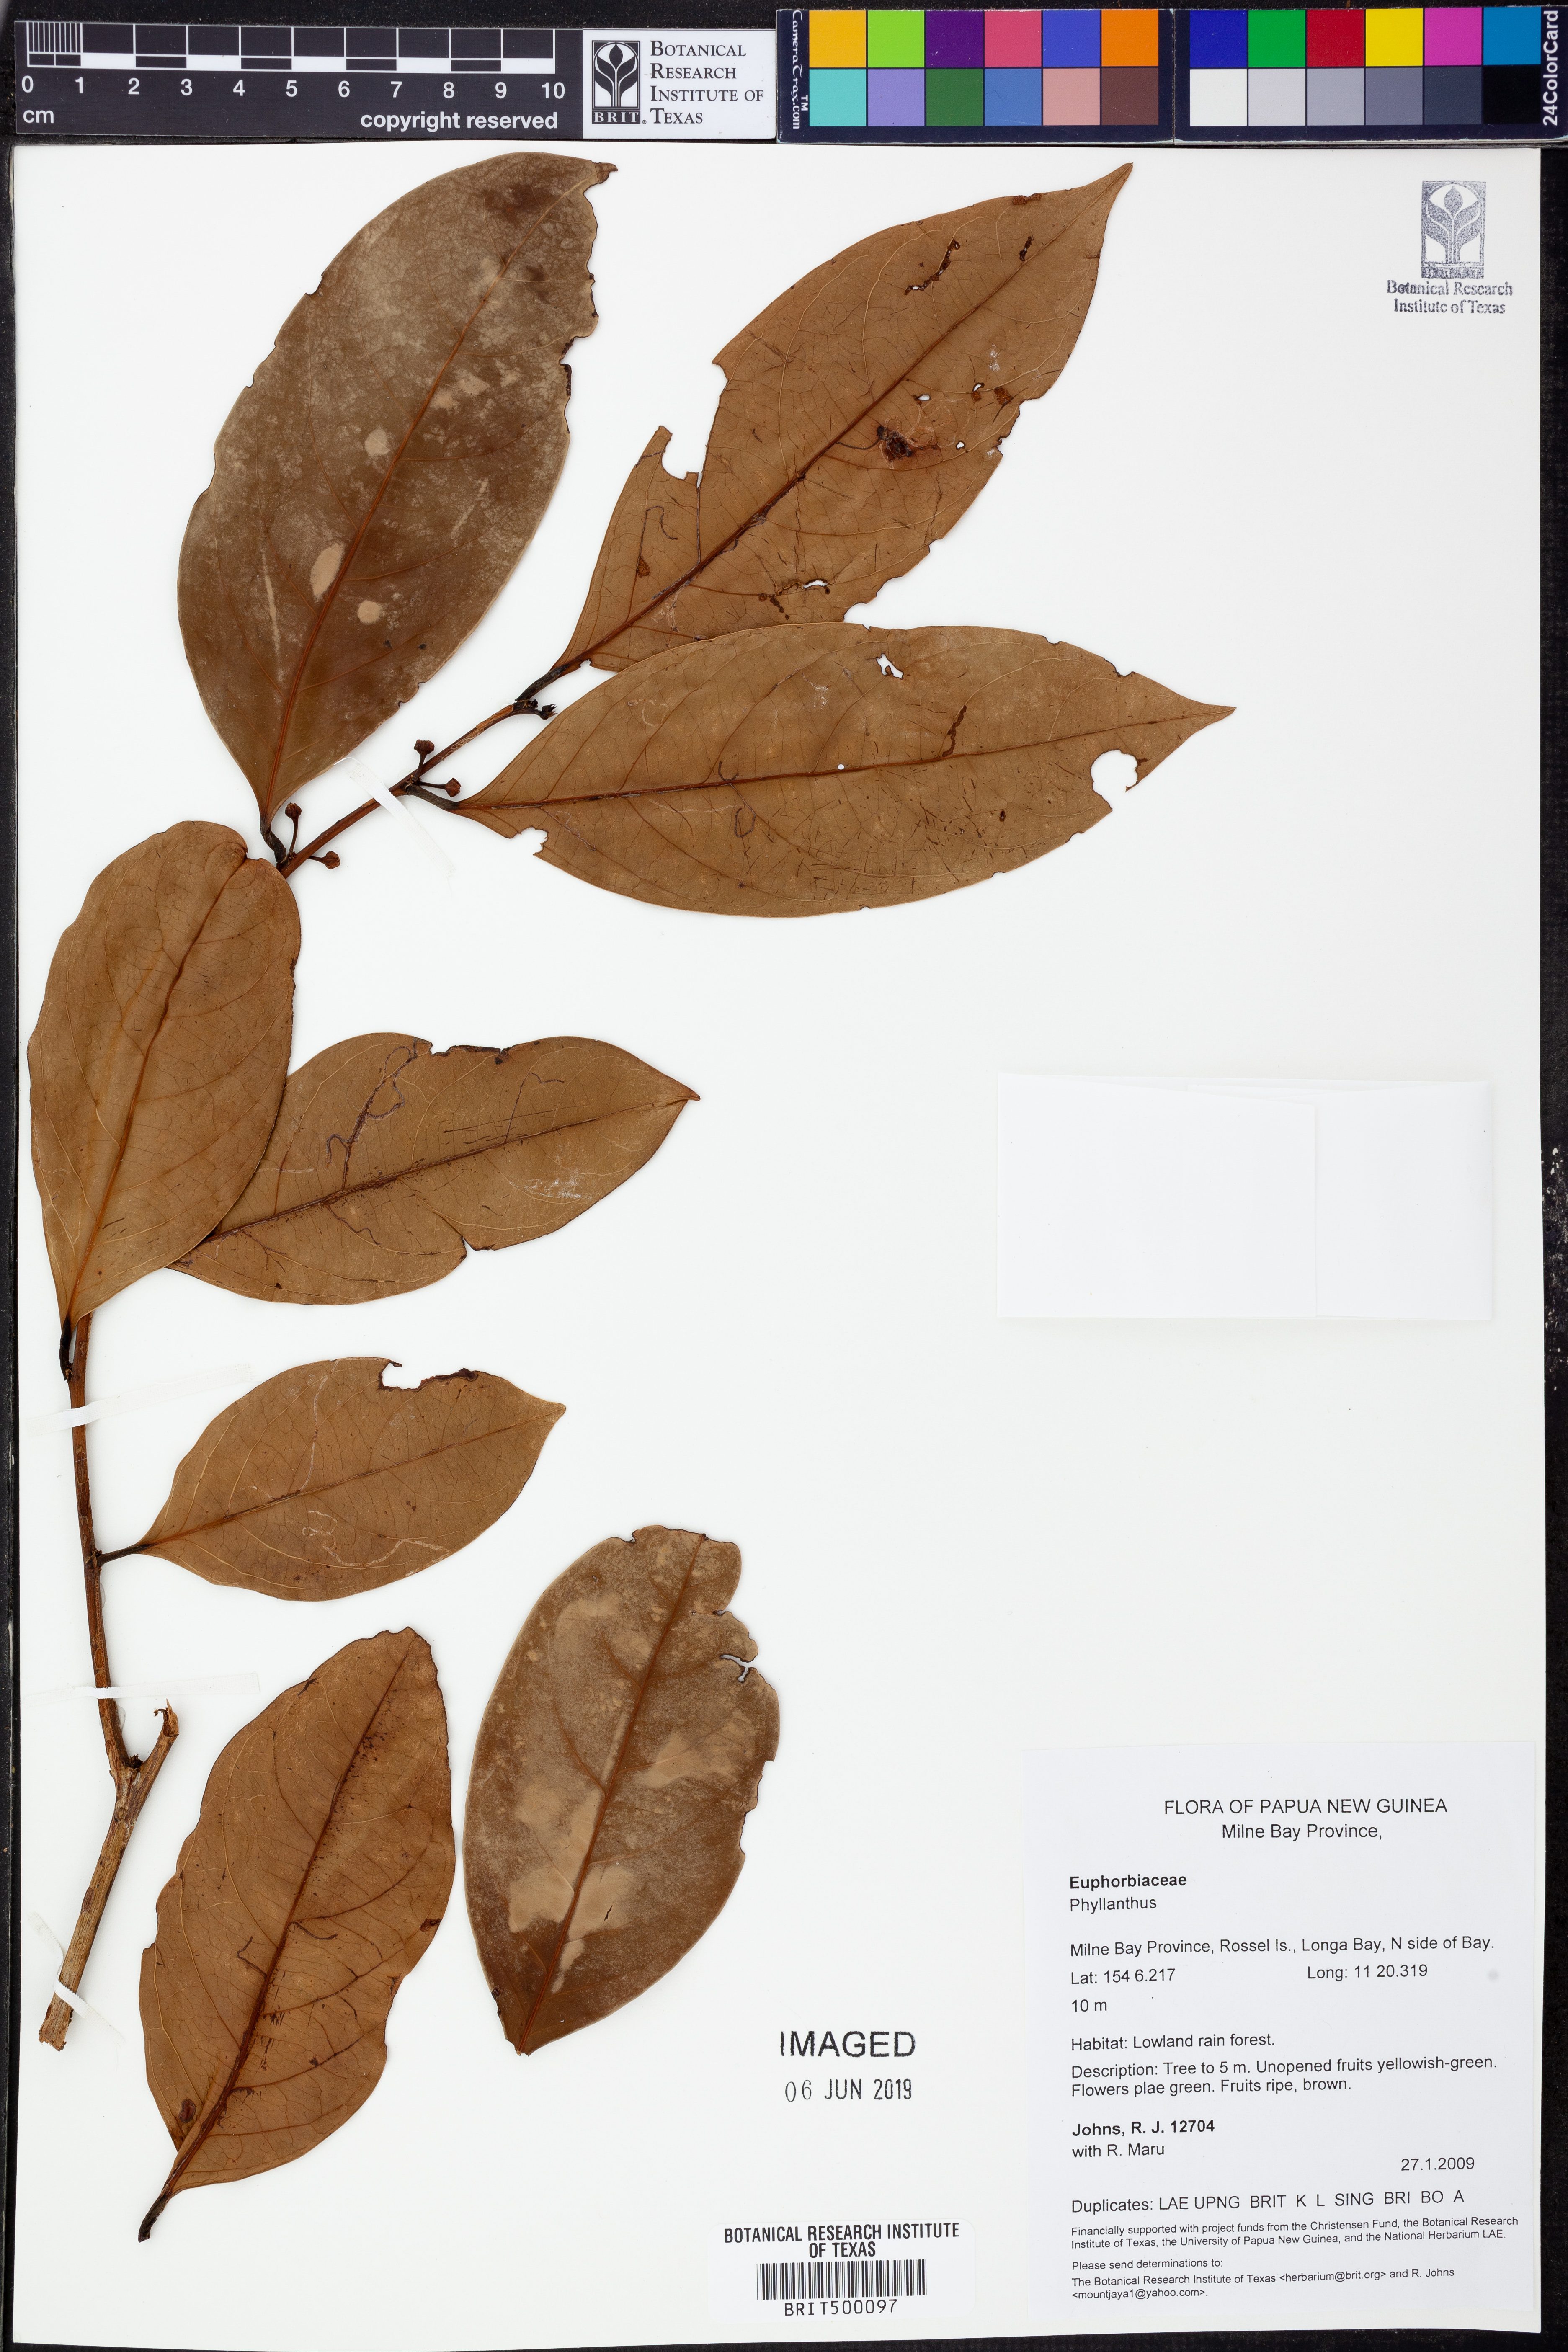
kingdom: Plantae
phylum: Tracheophyta
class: Magnoliopsida
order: Malpighiales
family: Phyllanthaceae
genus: Phyllanthus
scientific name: Phyllanthus
